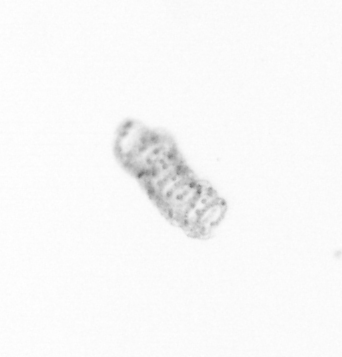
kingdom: Chromista
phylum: Ochrophyta
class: Bacillariophyceae
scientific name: Bacillariophyceae
